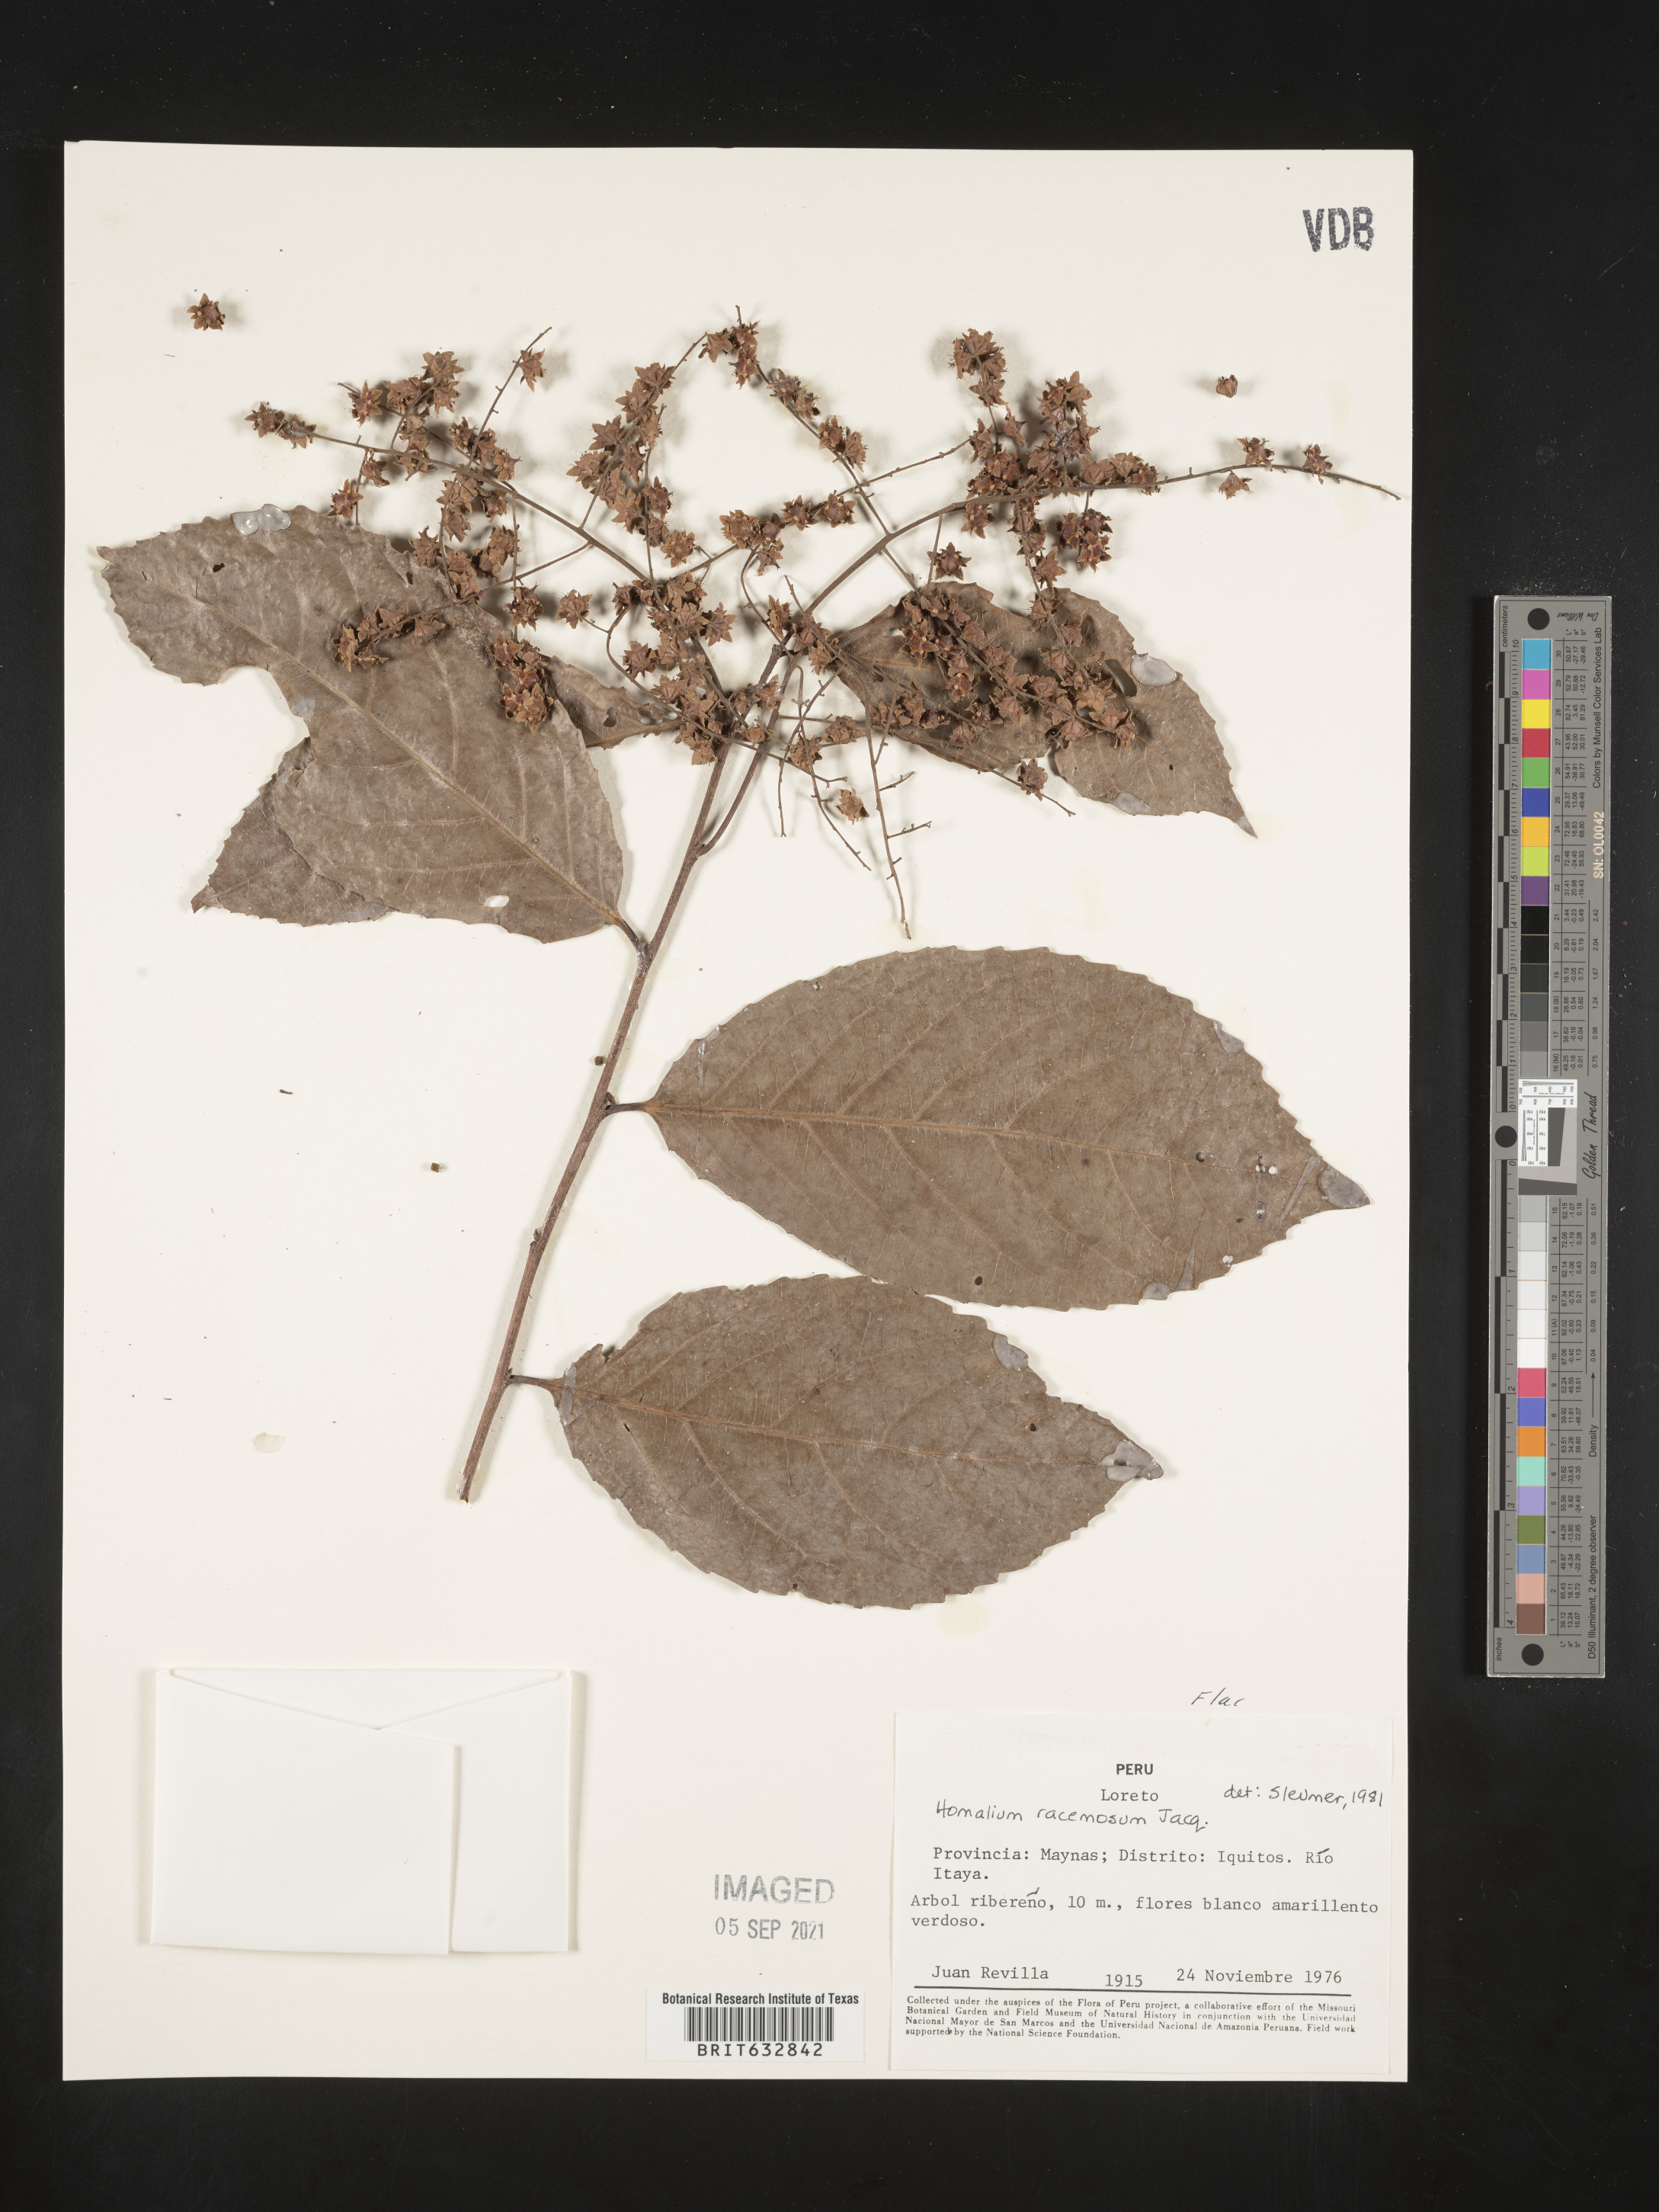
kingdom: Plantae
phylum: Tracheophyta
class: Magnoliopsida
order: Malpighiales
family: Salicaceae
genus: Homalium
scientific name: Homalium
